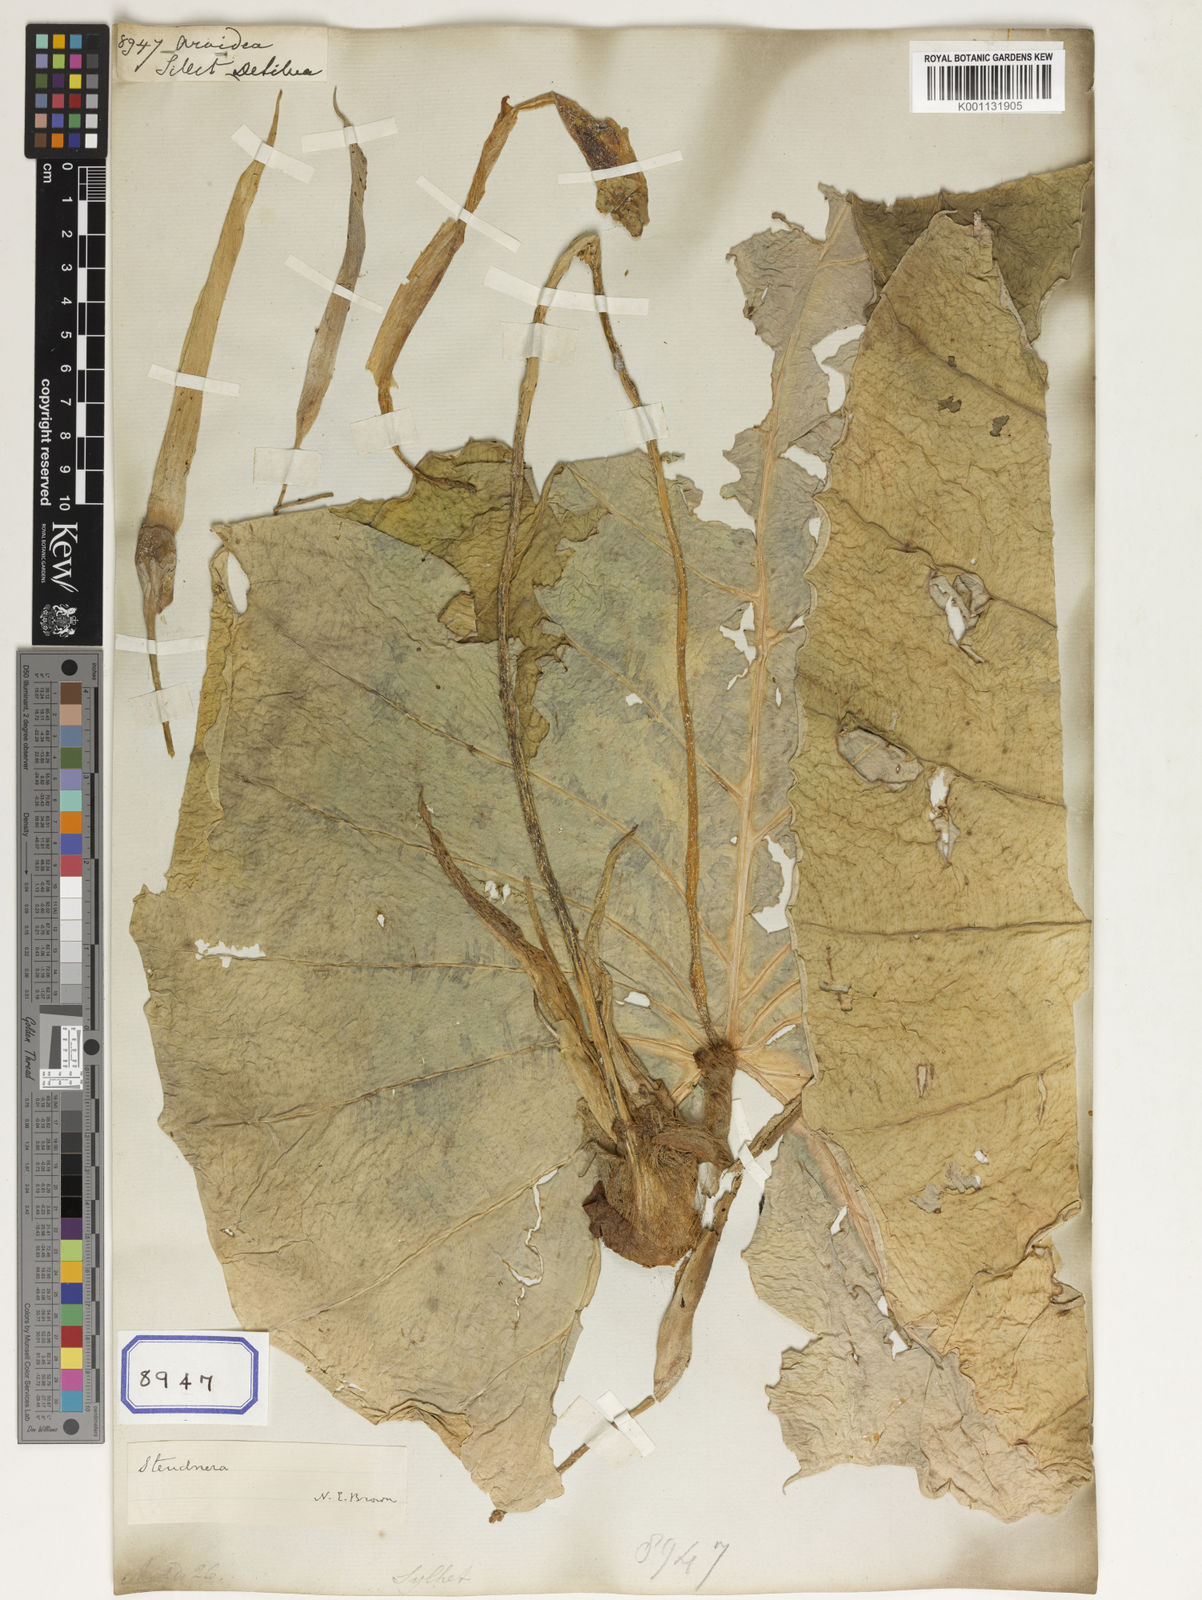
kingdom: Plantae
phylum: Tracheophyta
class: Liliopsida
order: Alismatales
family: Araceae
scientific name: Araceae
